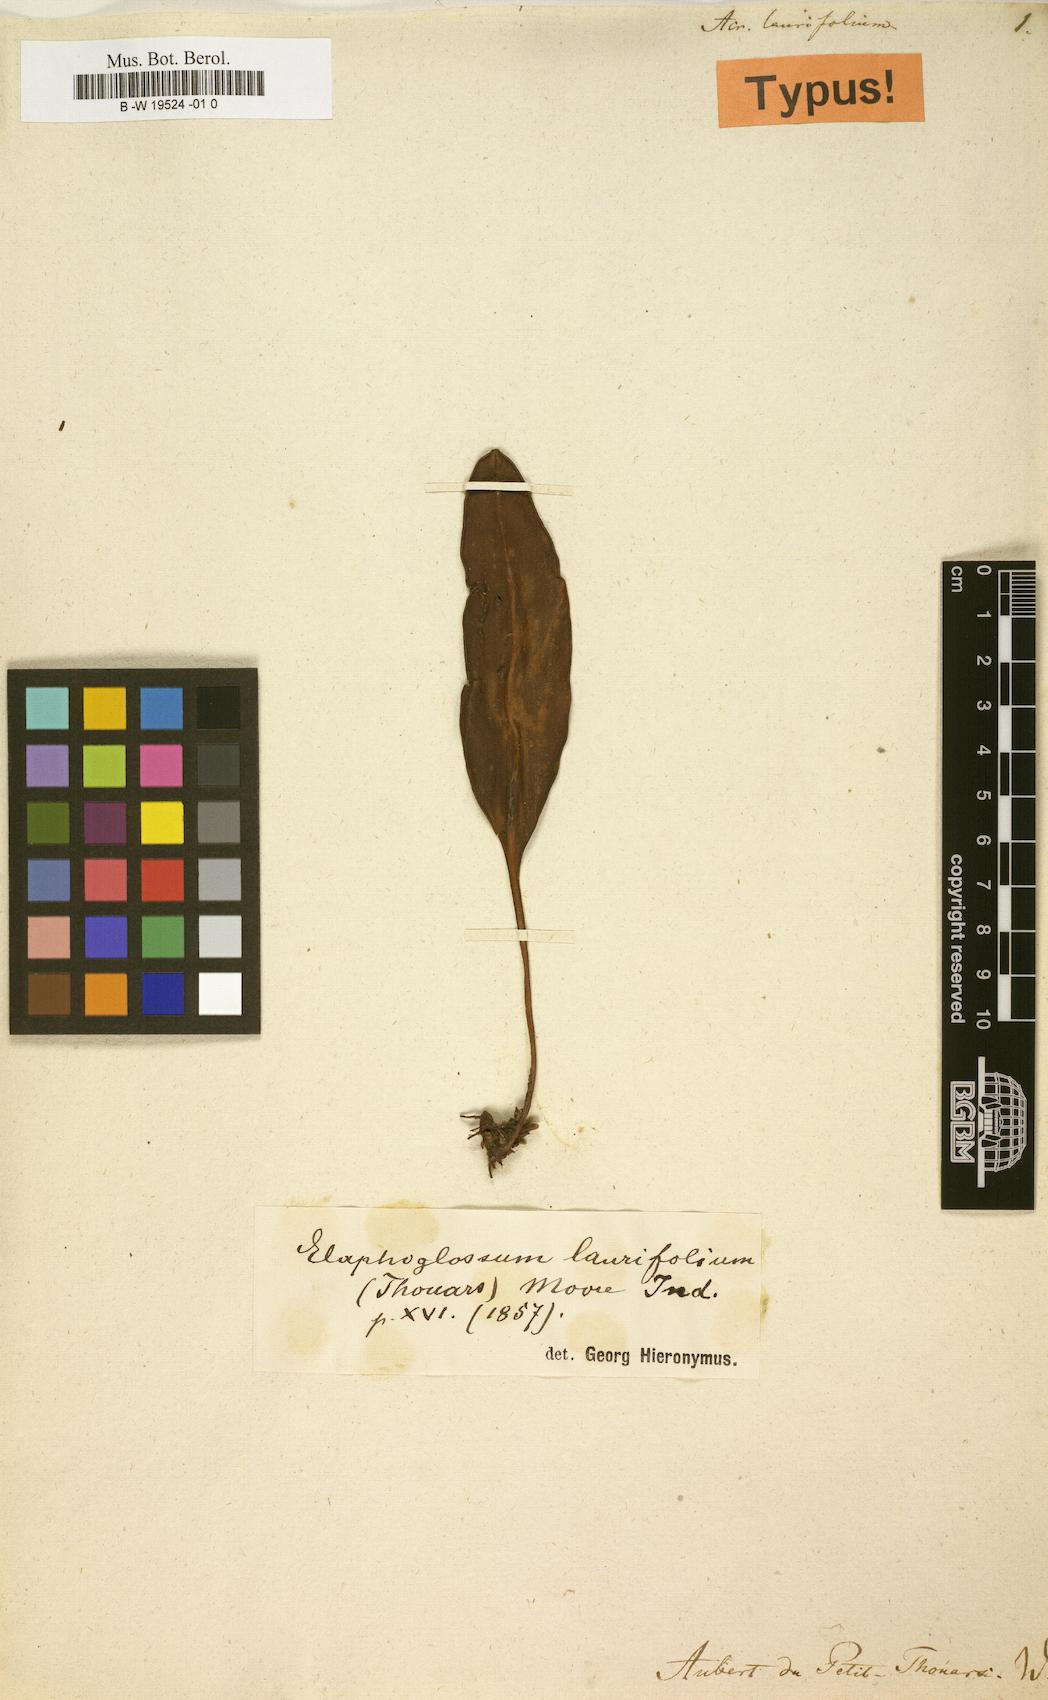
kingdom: Plantae
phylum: Tracheophyta
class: Polypodiopsida
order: Polypodiales
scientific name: Polypodiales
